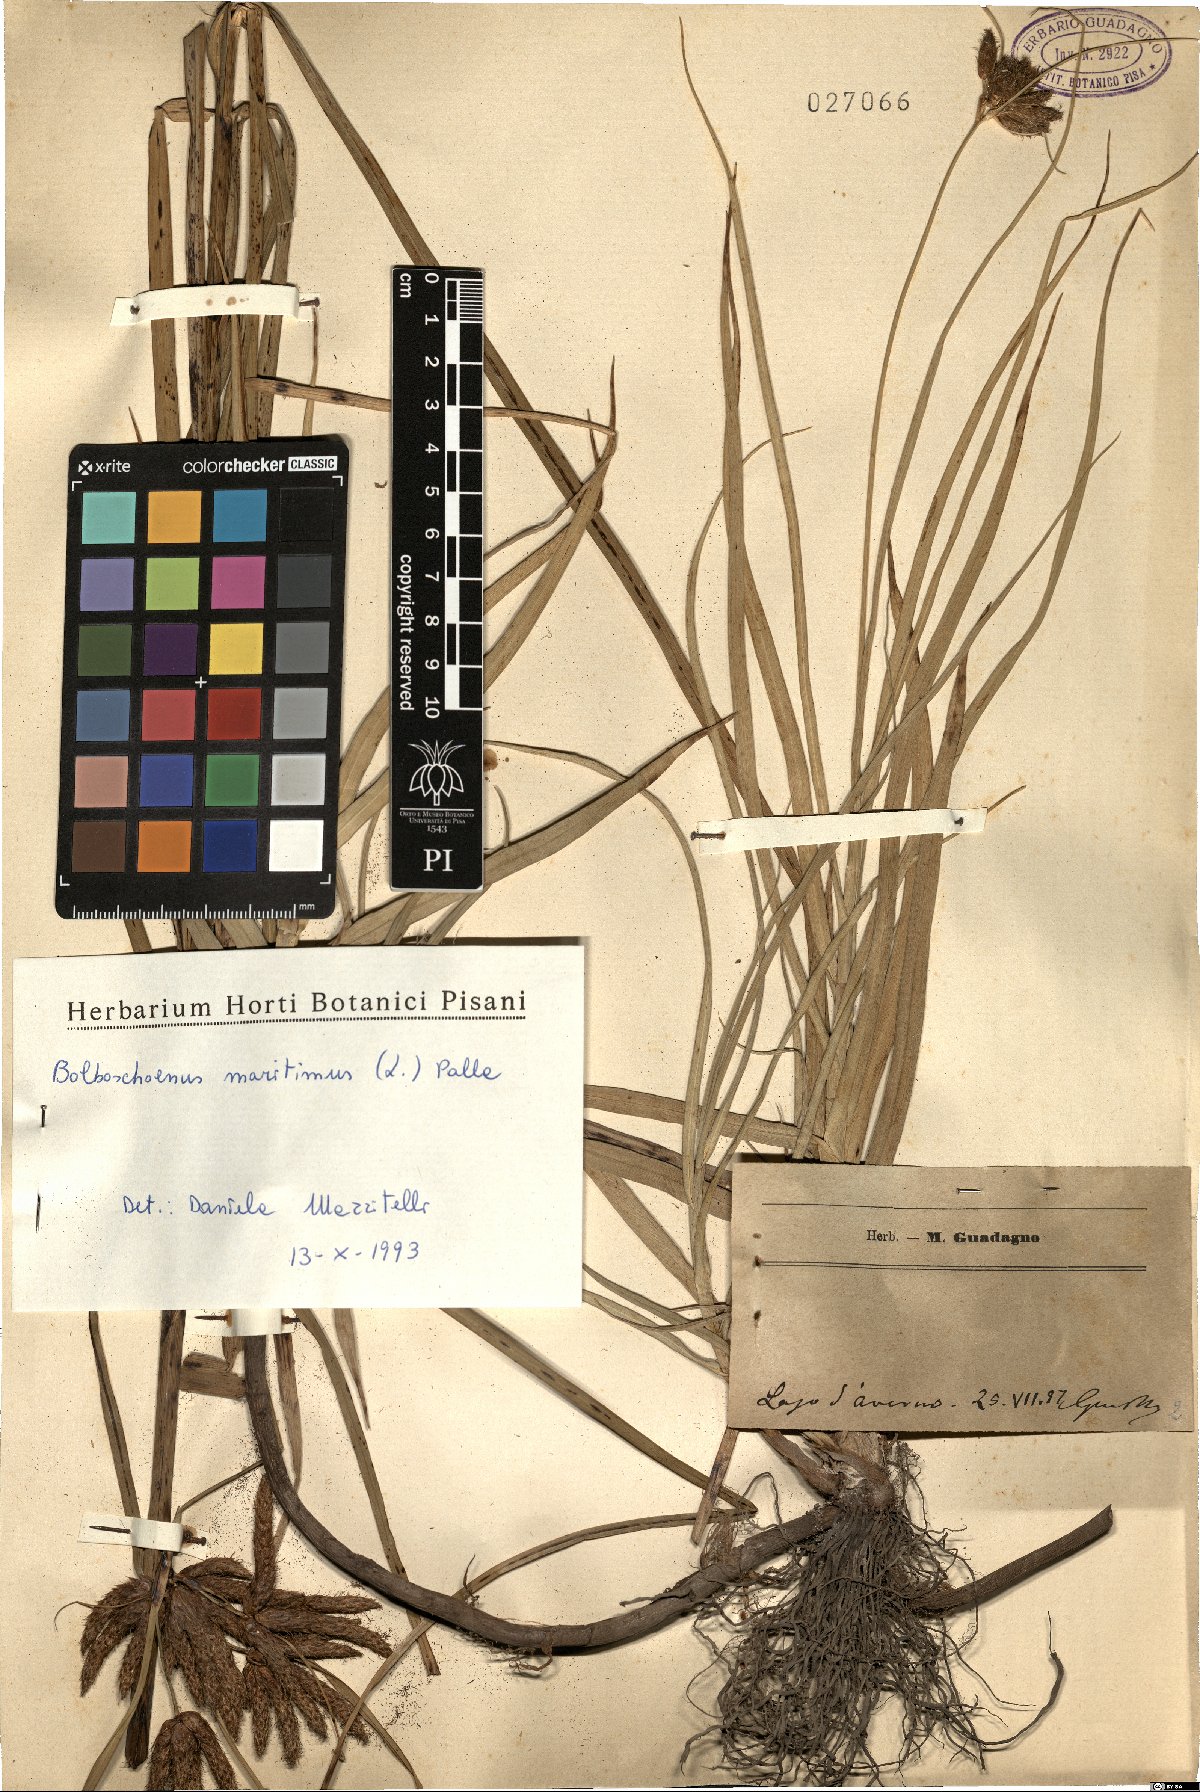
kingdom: Plantae
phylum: Tracheophyta
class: Liliopsida
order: Poales
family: Cyperaceae
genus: Bolboschoenus
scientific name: Bolboschoenus maritimus
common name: Sea club-rush
